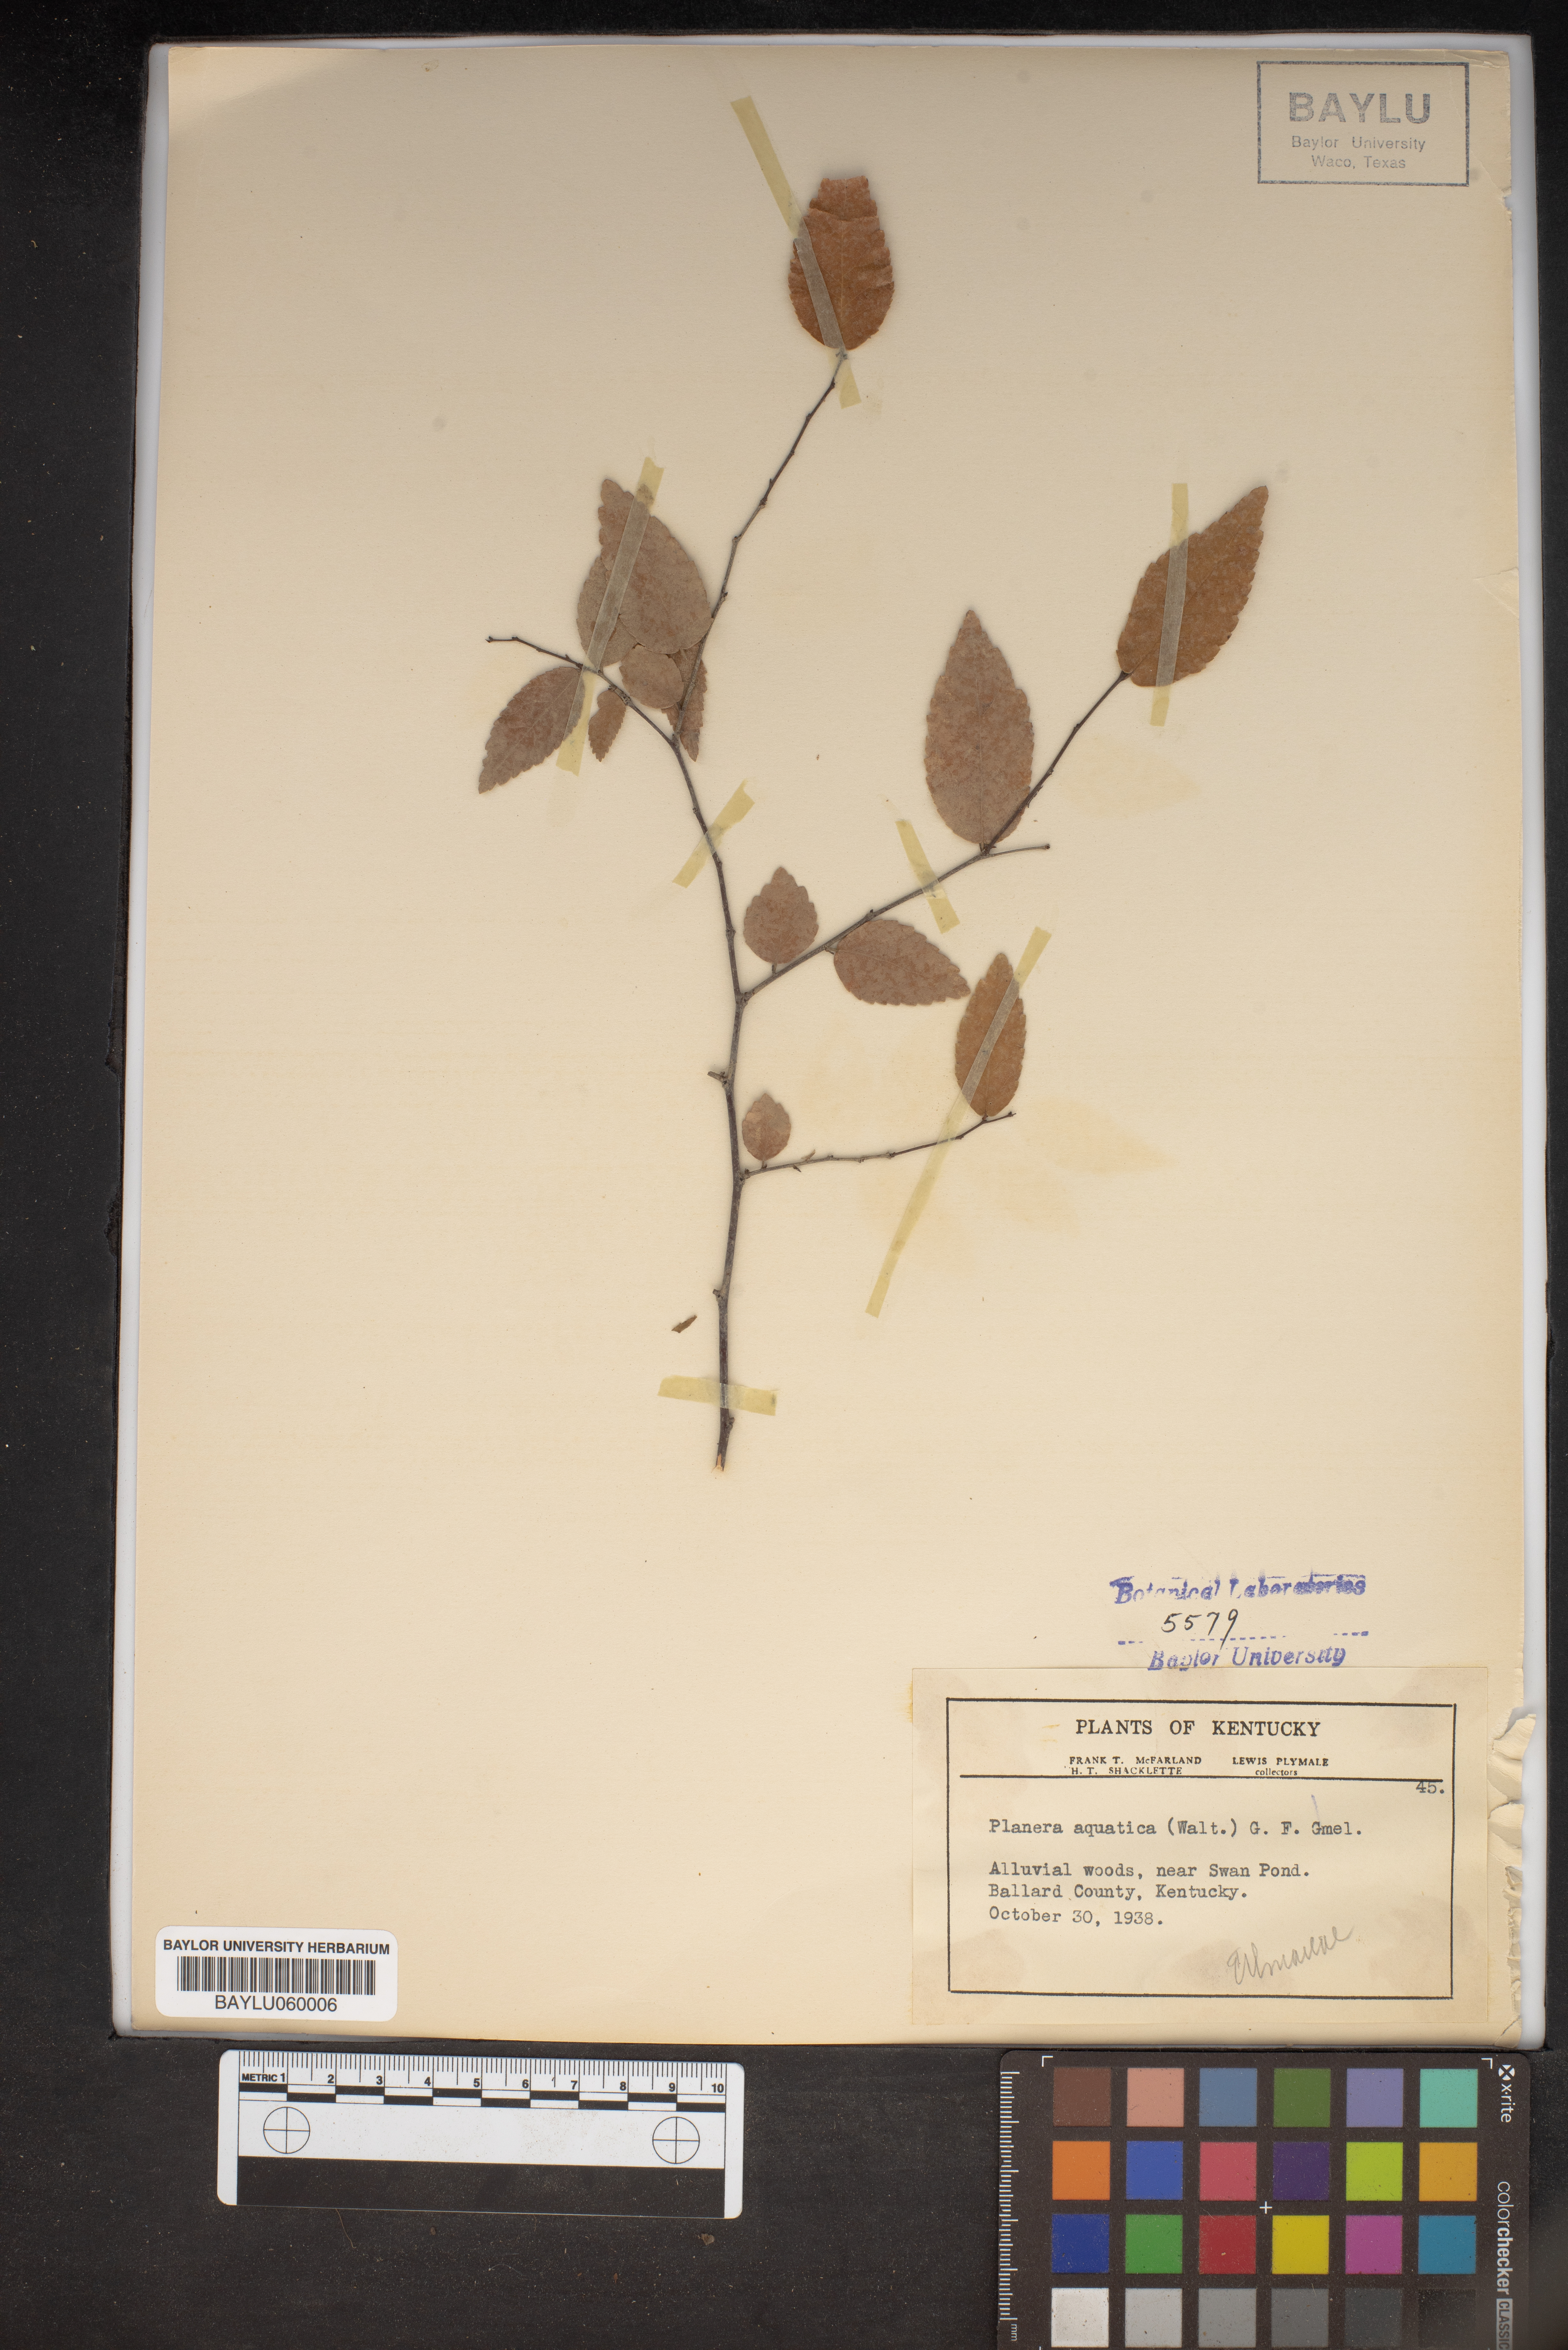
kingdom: Plantae
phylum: Tracheophyta
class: Magnoliopsida
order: Rosales
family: Ulmaceae
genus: Planera
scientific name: Planera aquatica
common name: Water-elm
